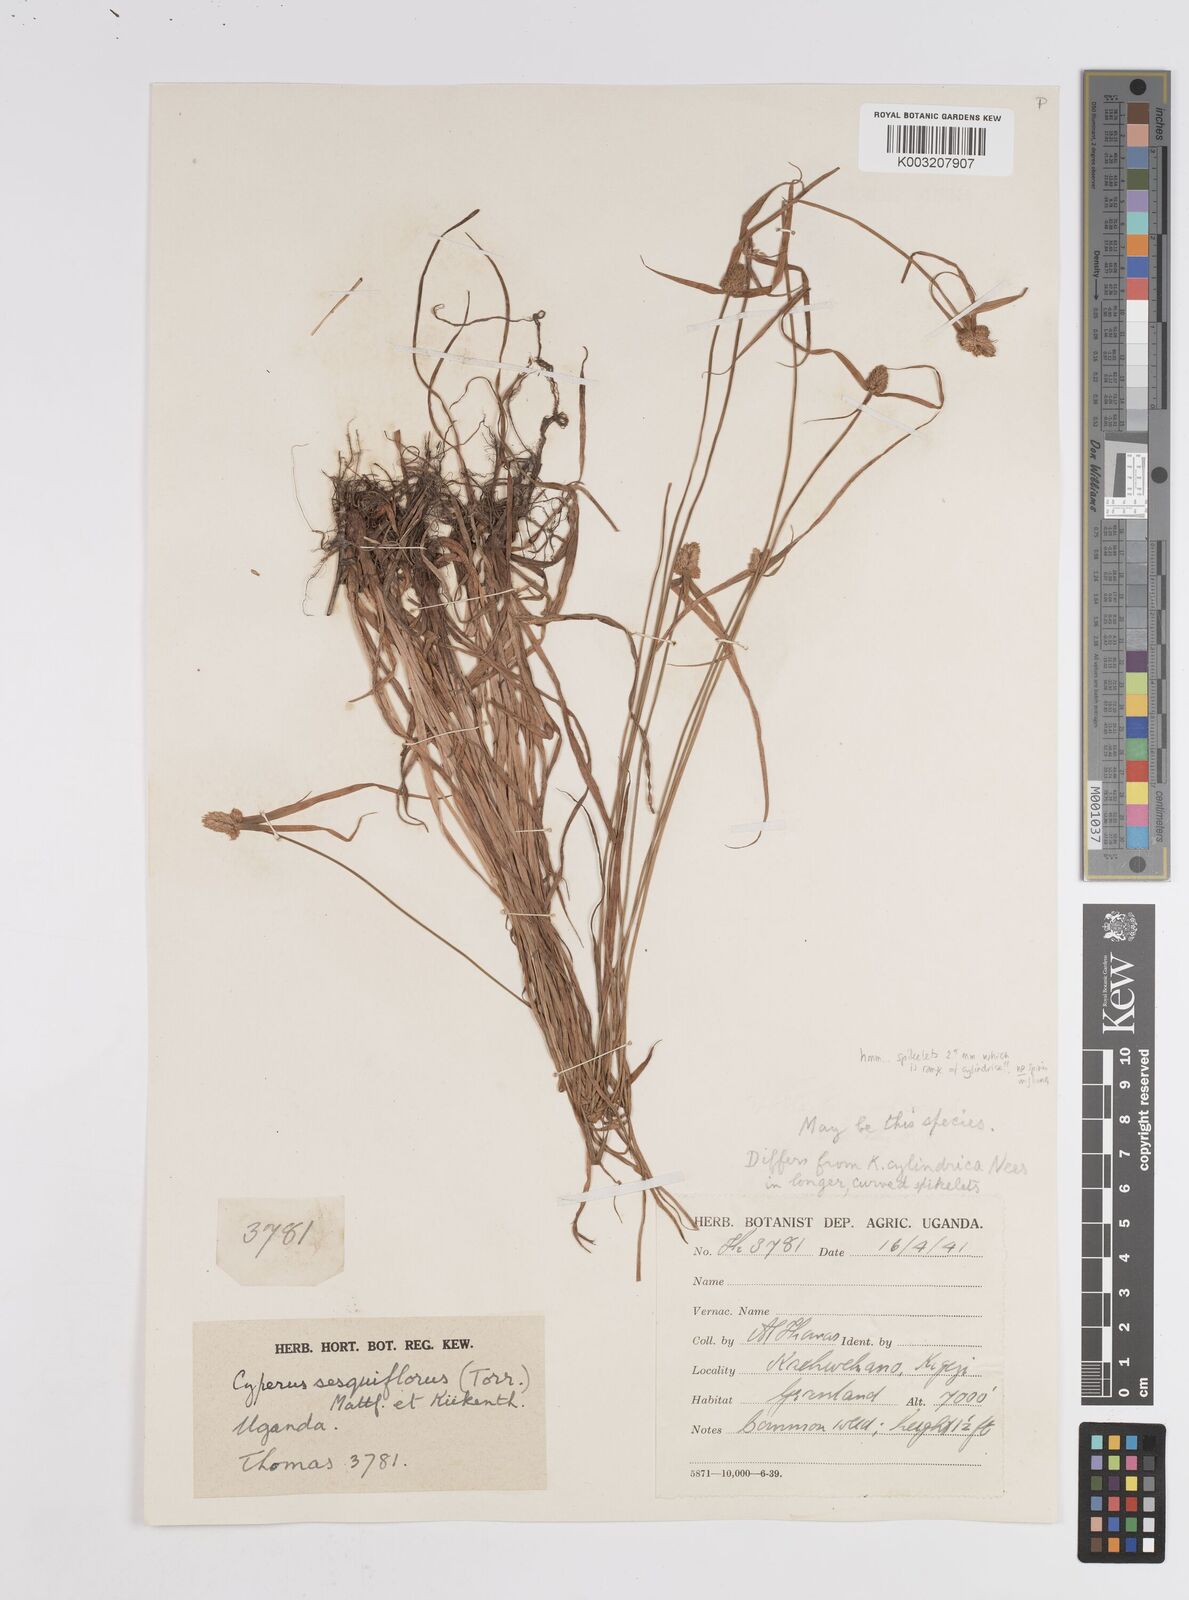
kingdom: Plantae
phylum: Tracheophyta
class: Liliopsida
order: Poales
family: Cyperaceae
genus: Cyperus
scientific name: Cyperus
